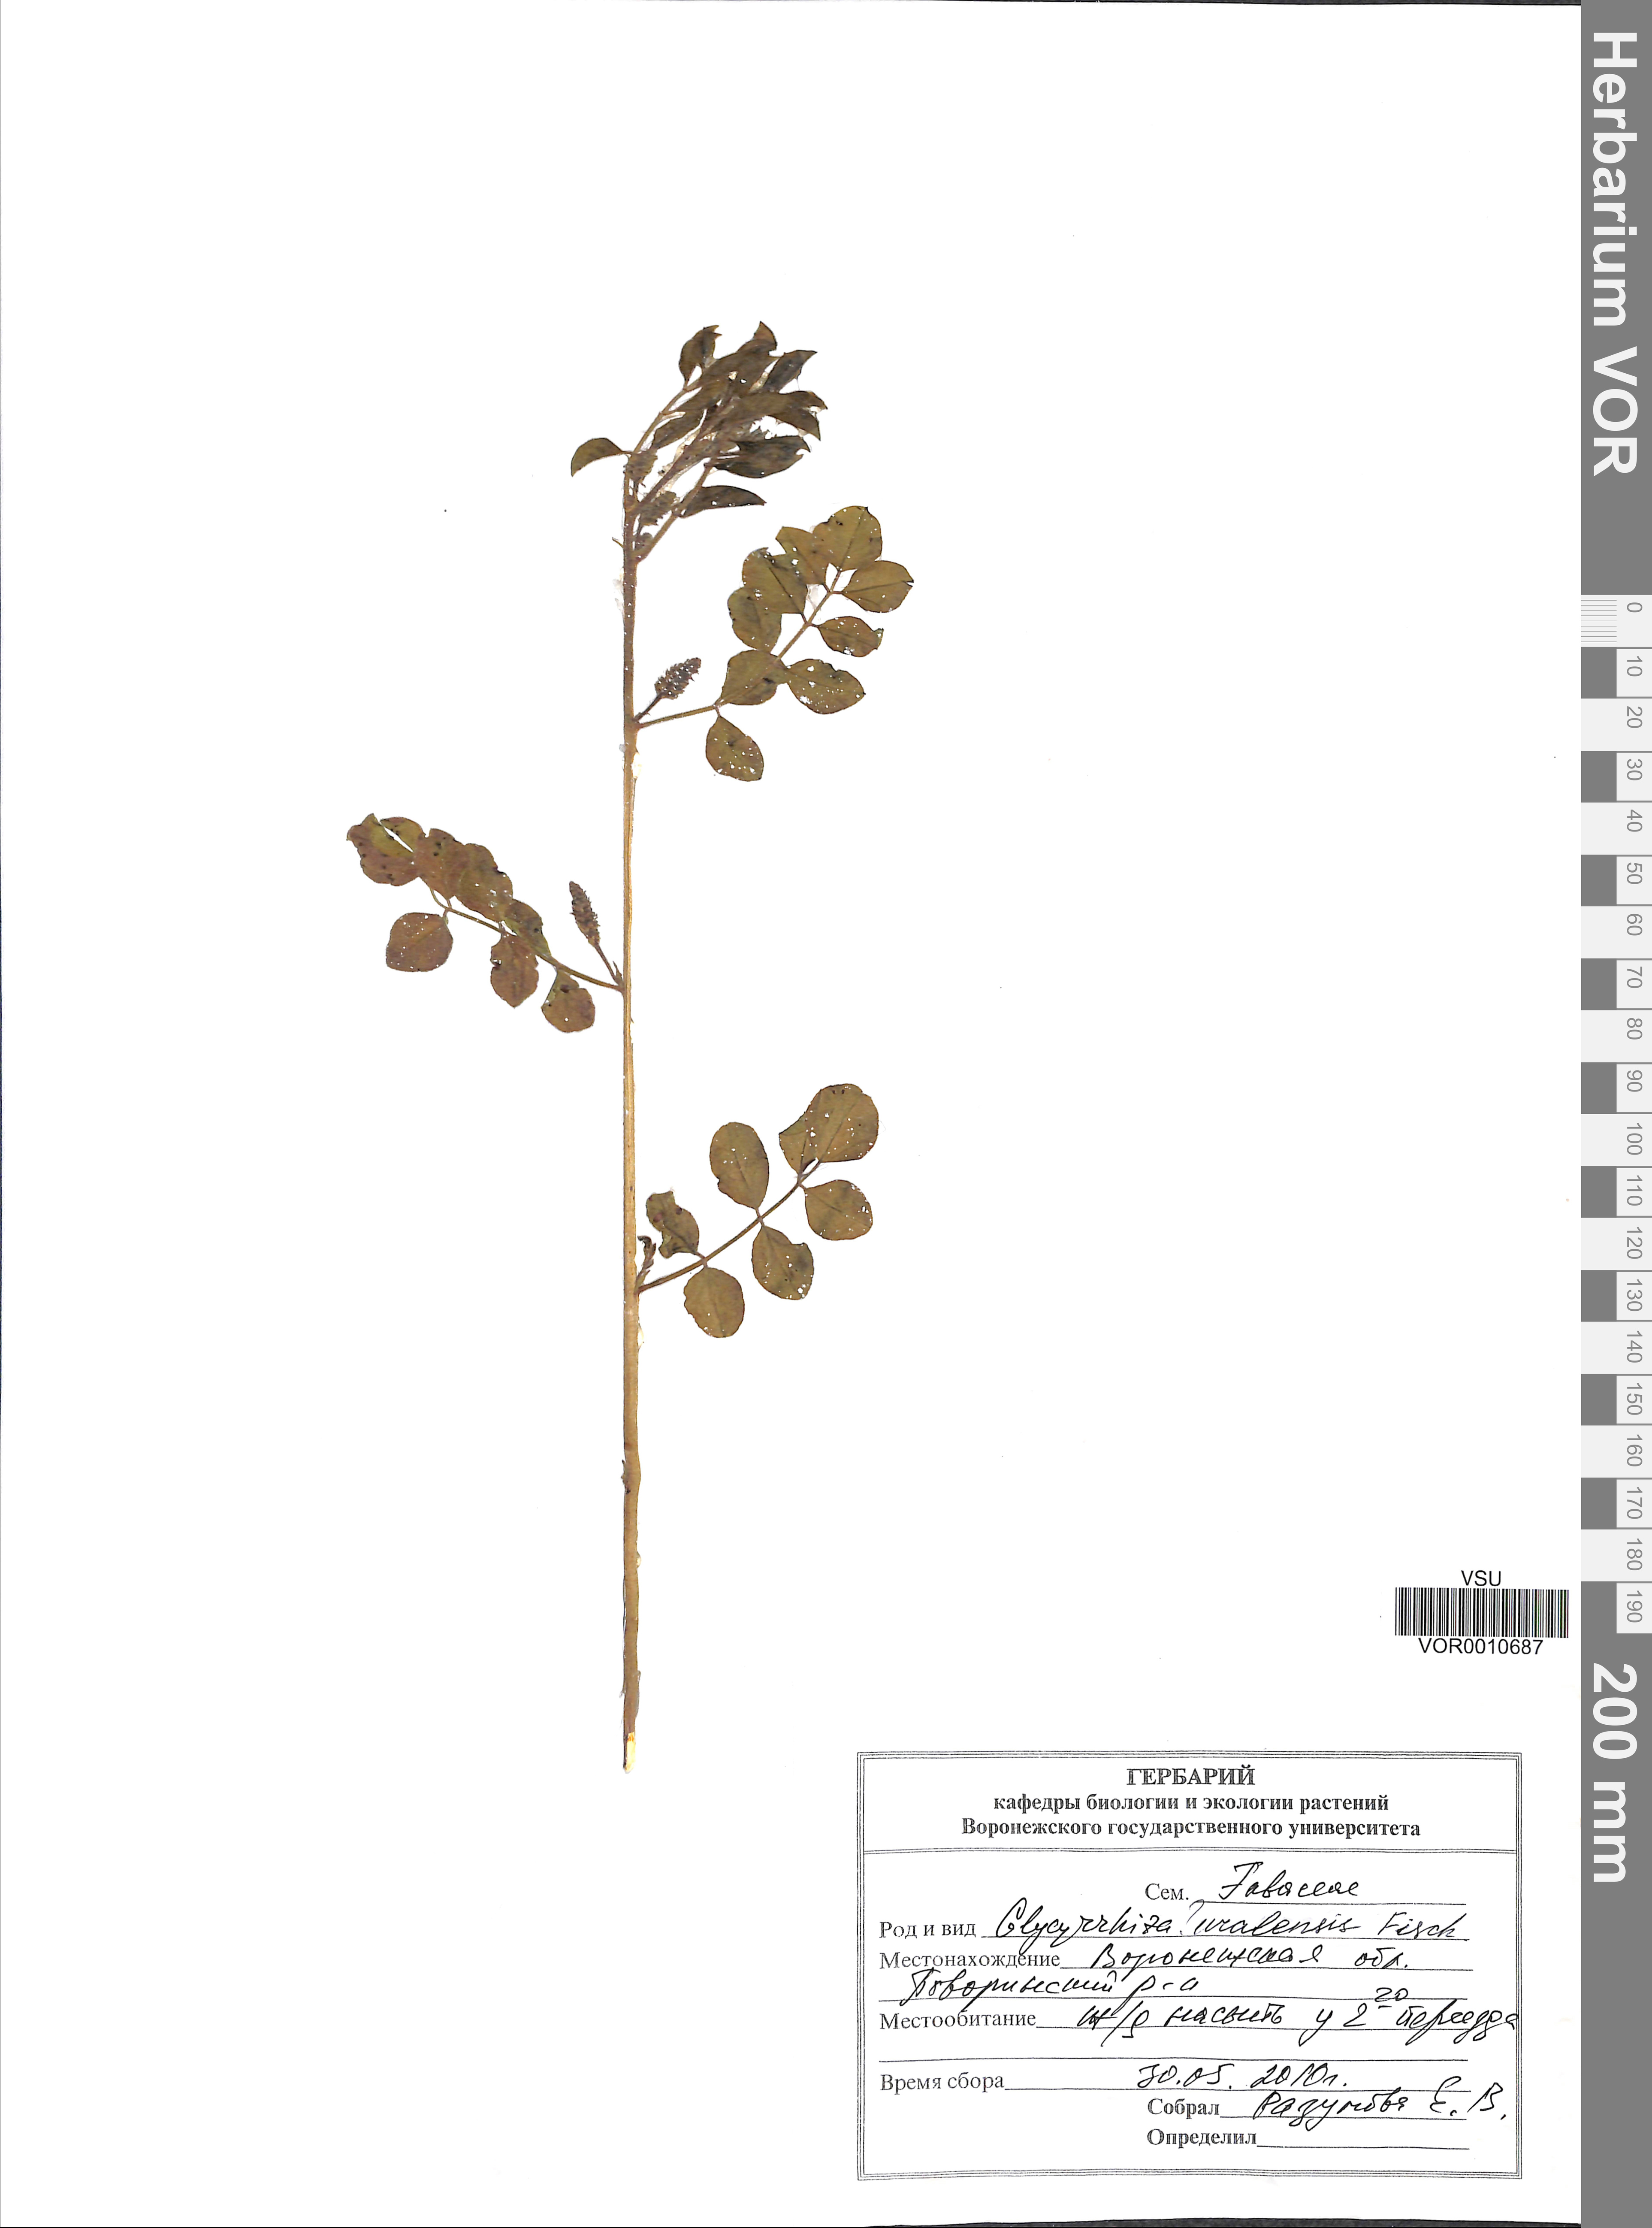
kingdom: Plantae
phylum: Tracheophyta
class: Magnoliopsida
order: Fabales
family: Fabaceae
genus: Glycyrrhiza
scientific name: Glycyrrhiza uralensis
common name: Chinese licorice
